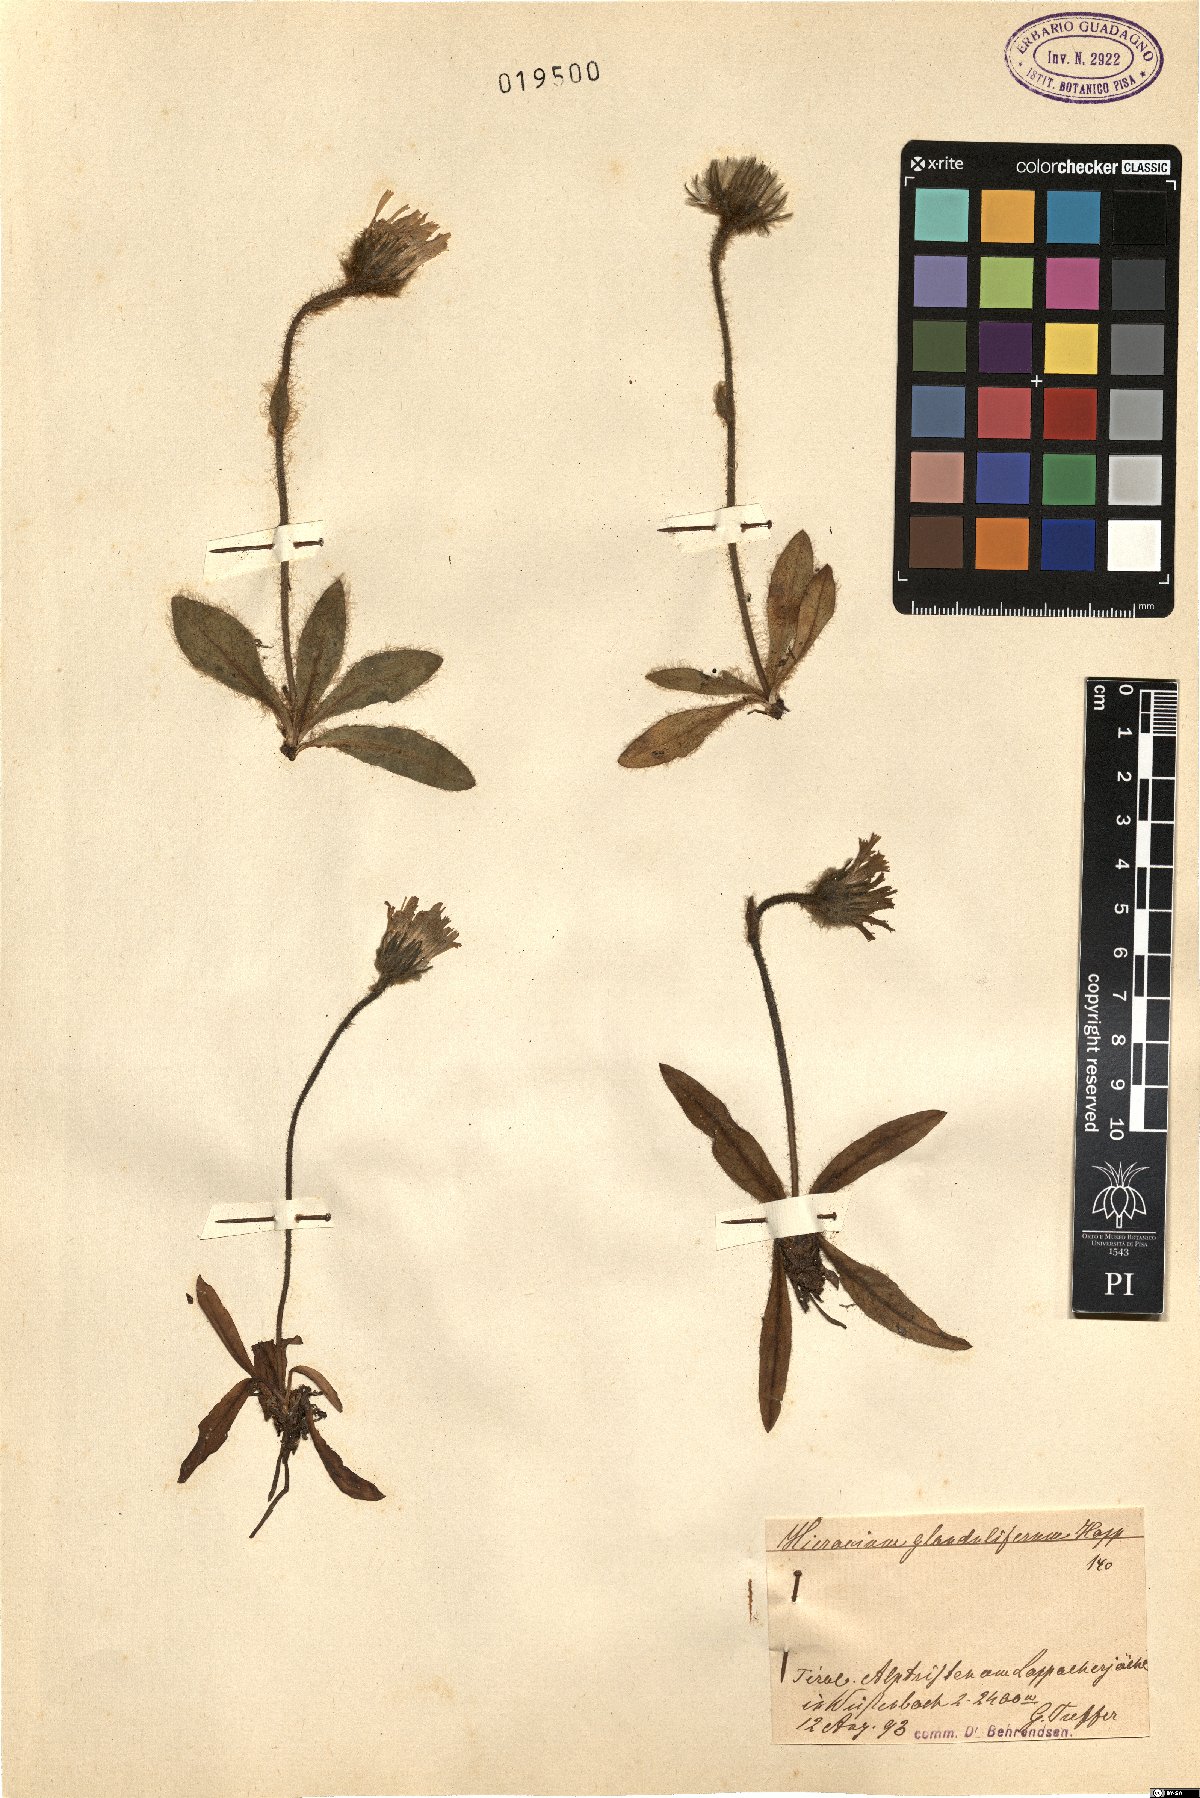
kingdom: Plantae
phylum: Tracheophyta
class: Magnoliopsida
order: Asterales
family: Asteraceae
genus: Hieracium
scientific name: Hieracium piliferum
